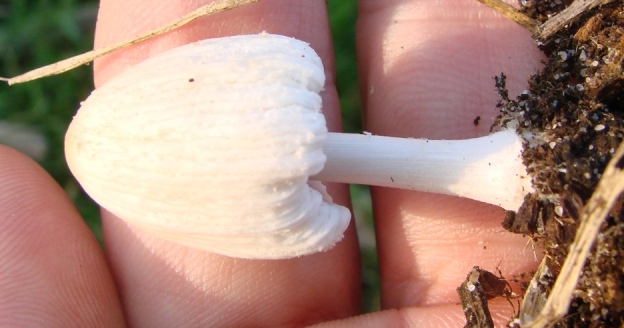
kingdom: Fungi
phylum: Basidiomycota
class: Agaricomycetes
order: Agaricales
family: Psathyrellaceae
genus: Coprinellus
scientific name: Coprinellus domesticus
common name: hus-blækhat
